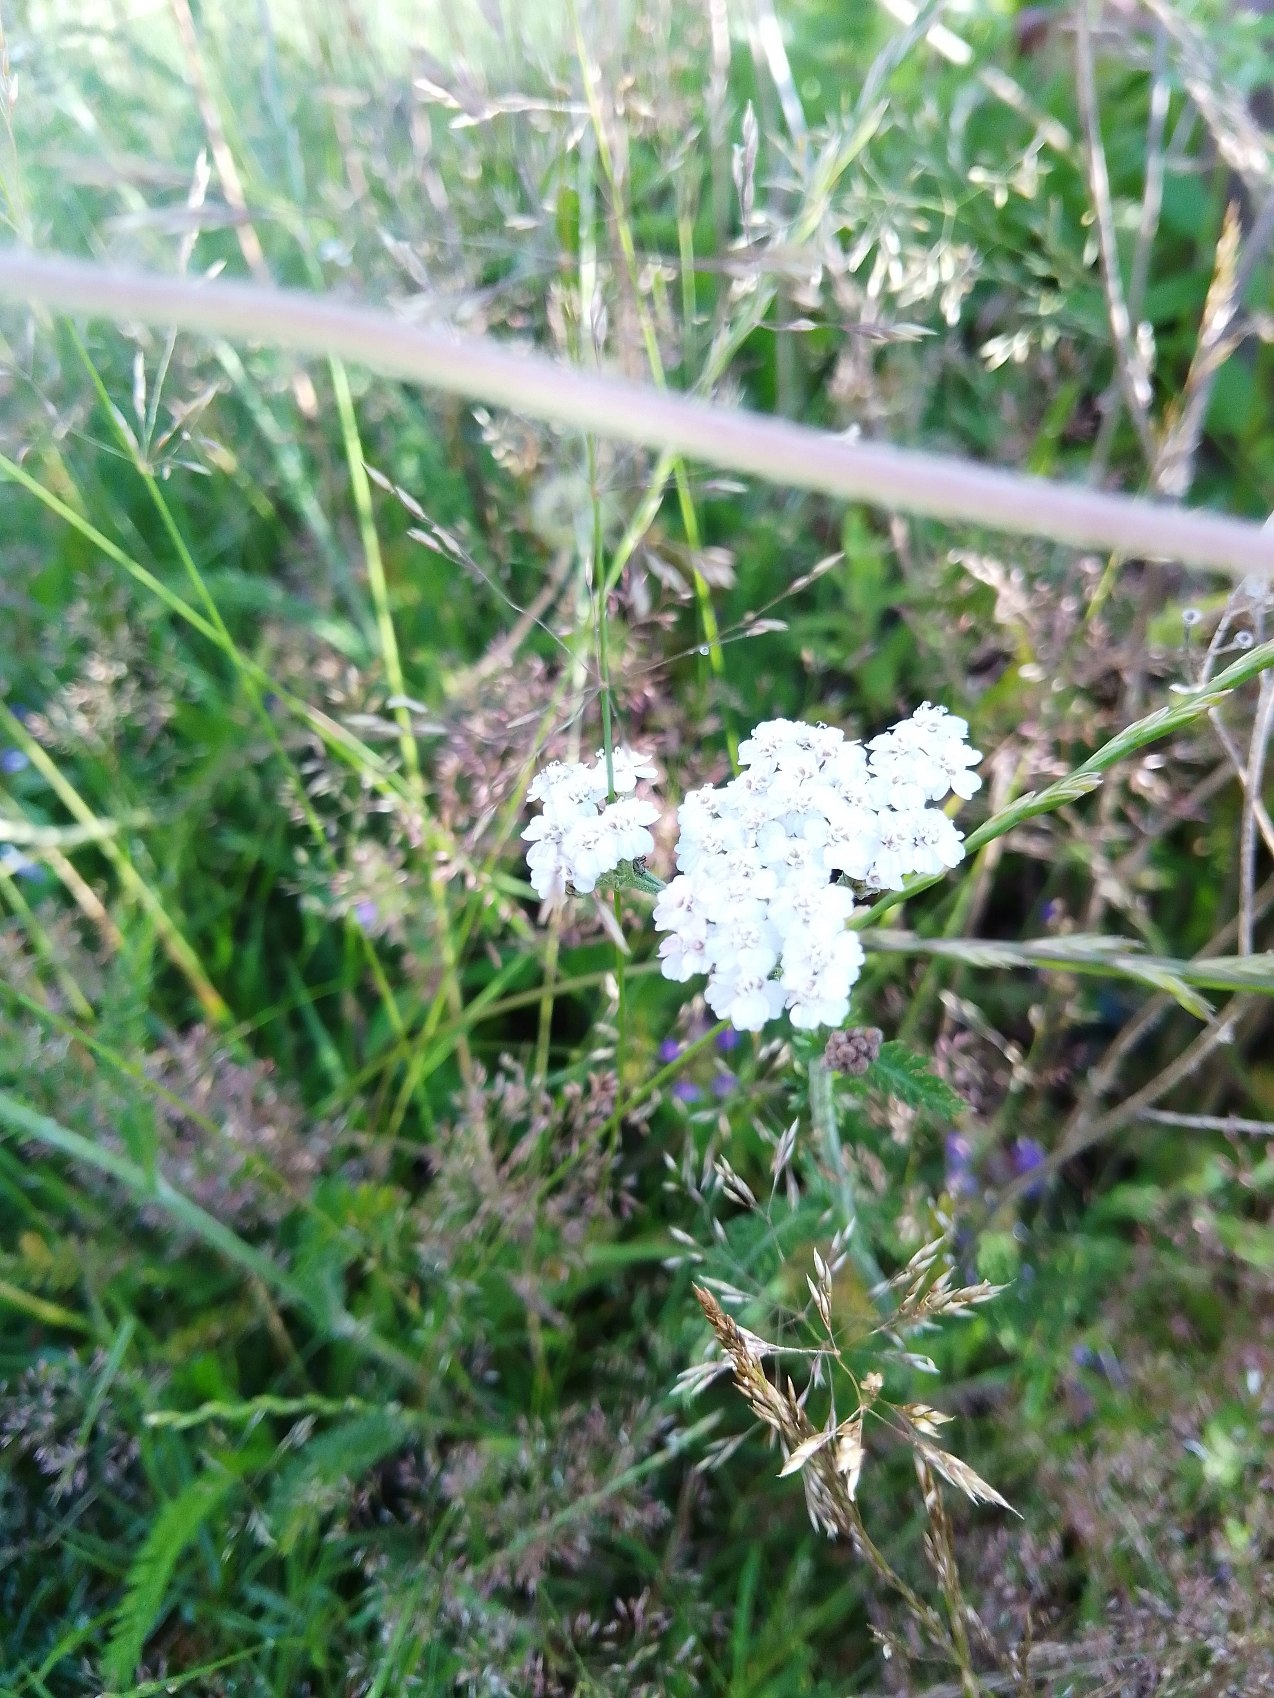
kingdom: Plantae
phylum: Tracheophyta
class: Magnoliopsida
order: Asterales
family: Asteraceae
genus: Achillea
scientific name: Achillea millefolium
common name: Almindelig røllike
